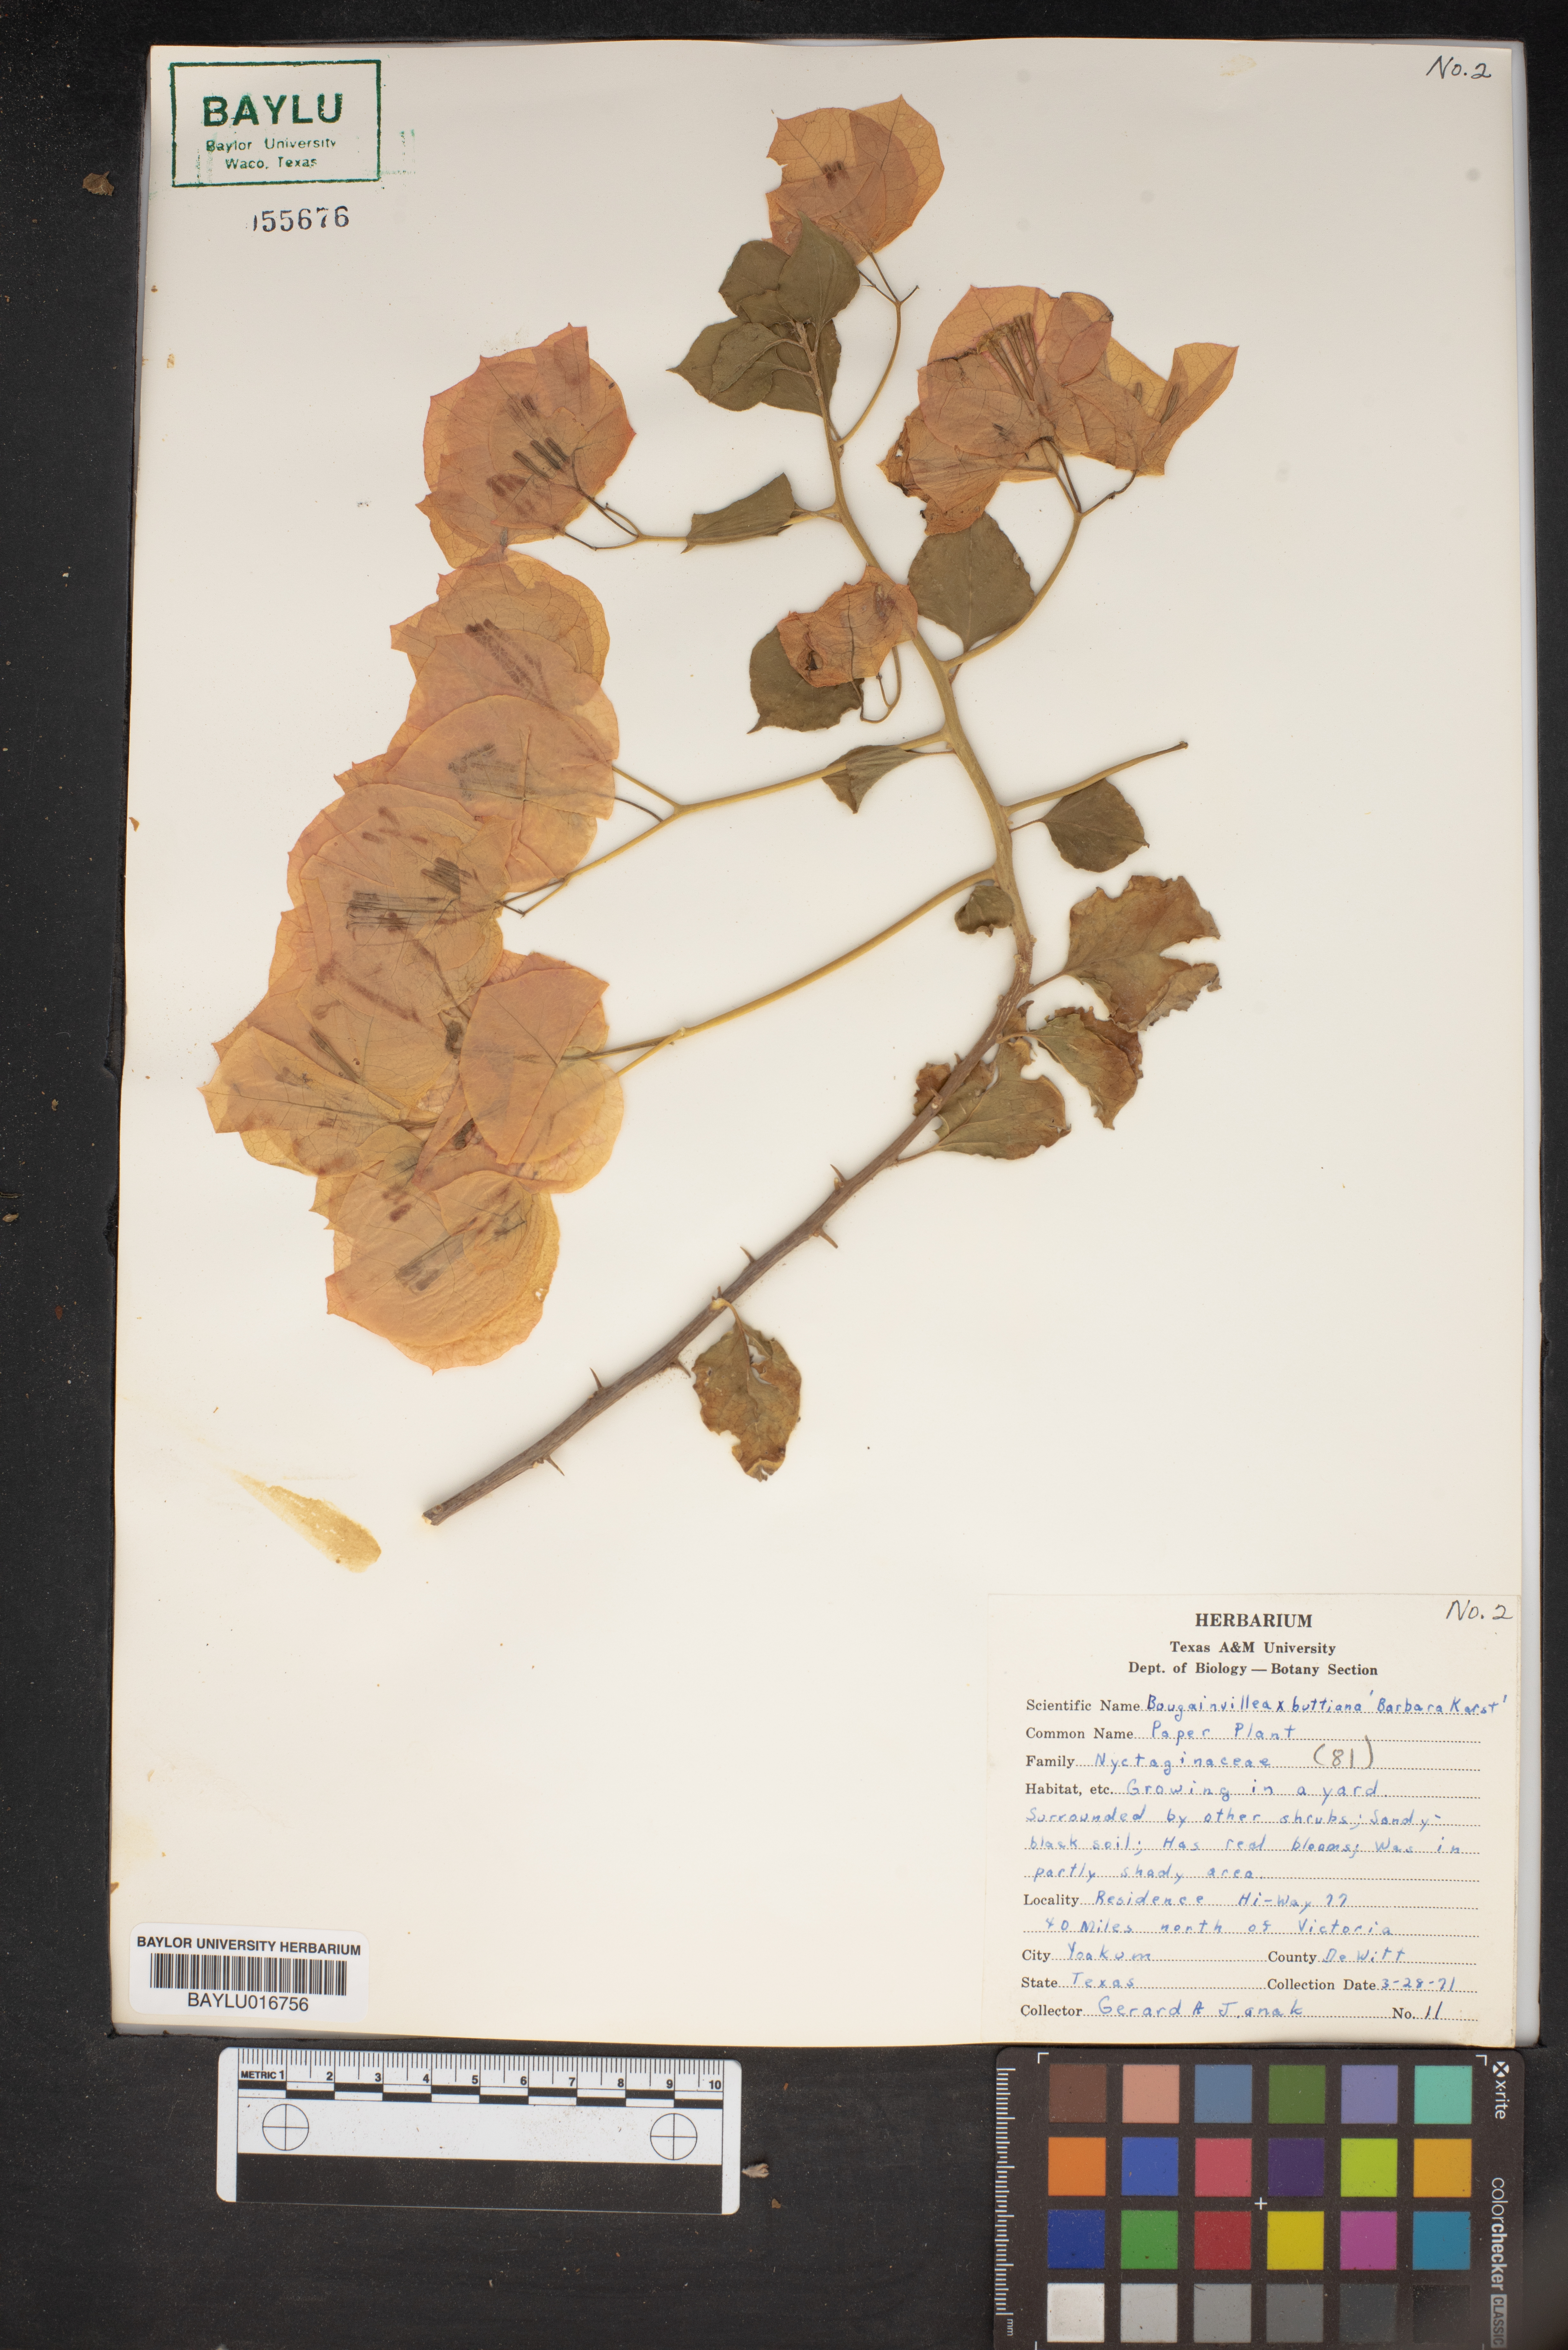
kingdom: Plantae
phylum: Tracheophyta
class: Magnoliopsida
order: Caryophyllales
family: Nyctaginaceae
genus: Bougainvillea
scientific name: Bougainvillea buttiana
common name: Bougainvillea
